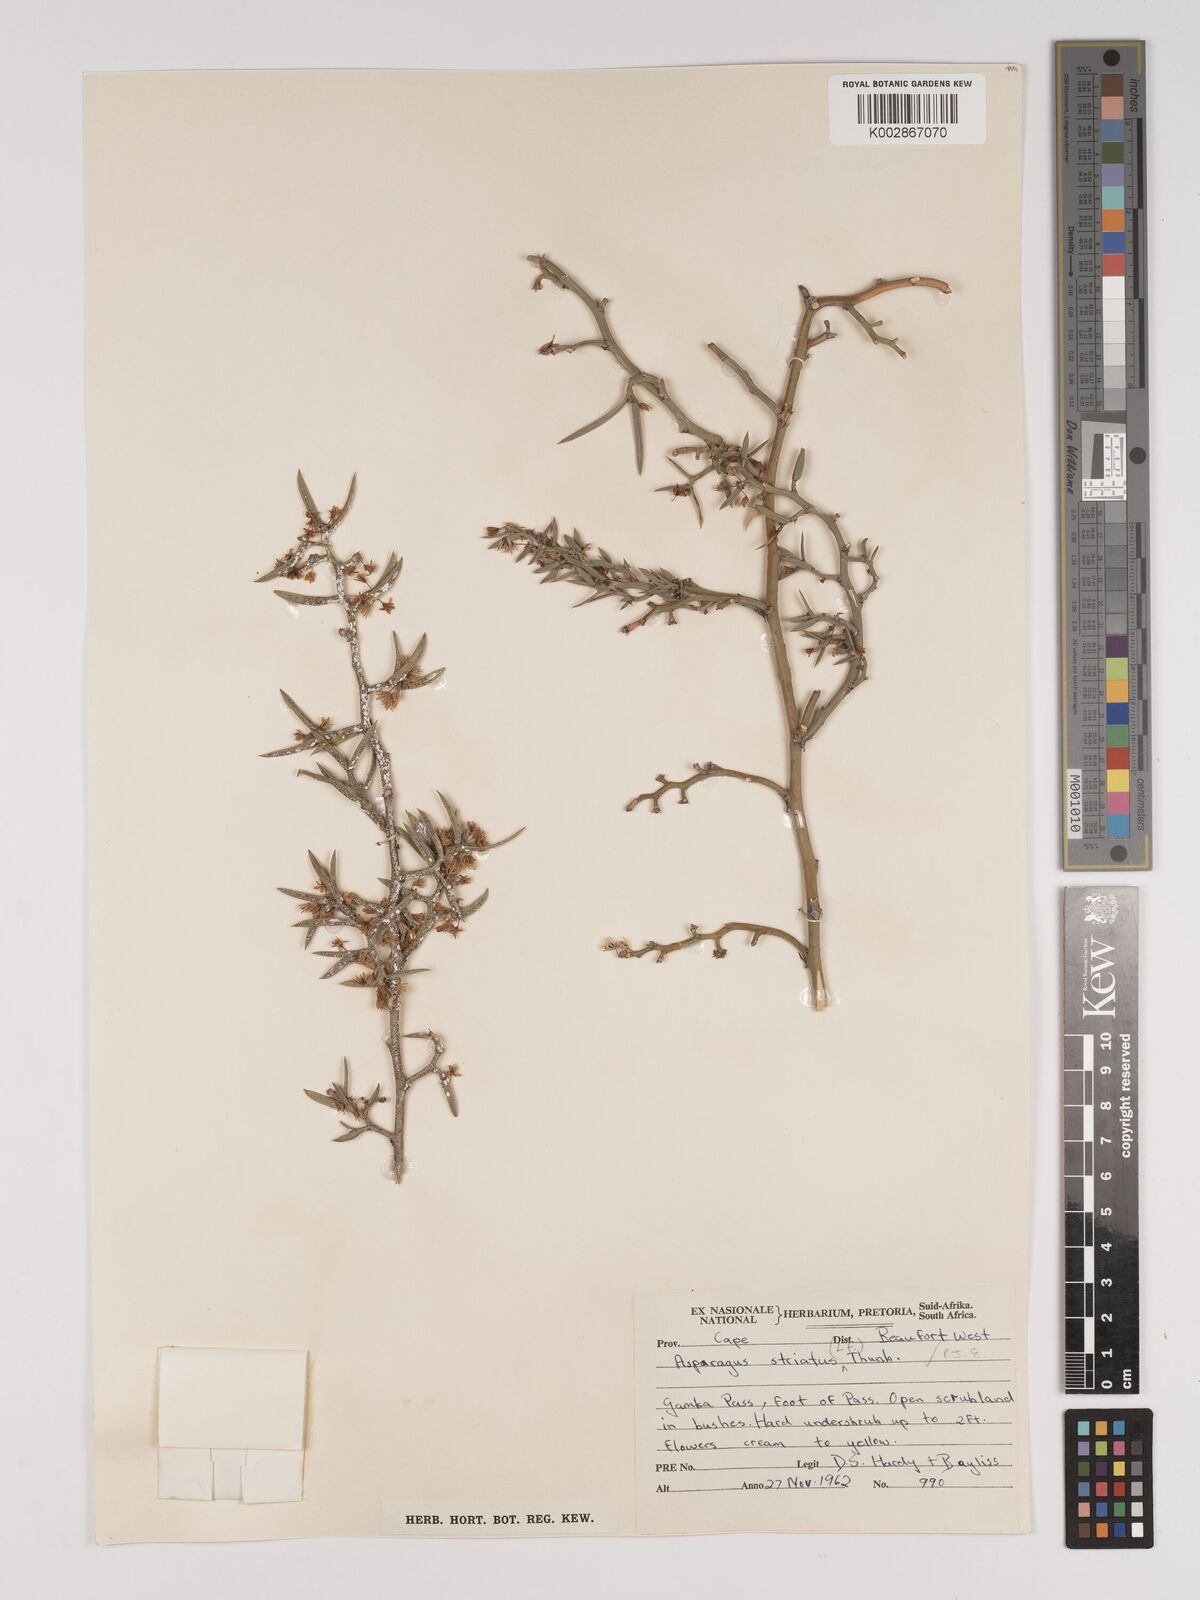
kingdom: Plantae
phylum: Tracheophyta
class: Liliopsida
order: Asparagales
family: Asparagaceae
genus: Asparagus
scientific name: Asparagus striatus
